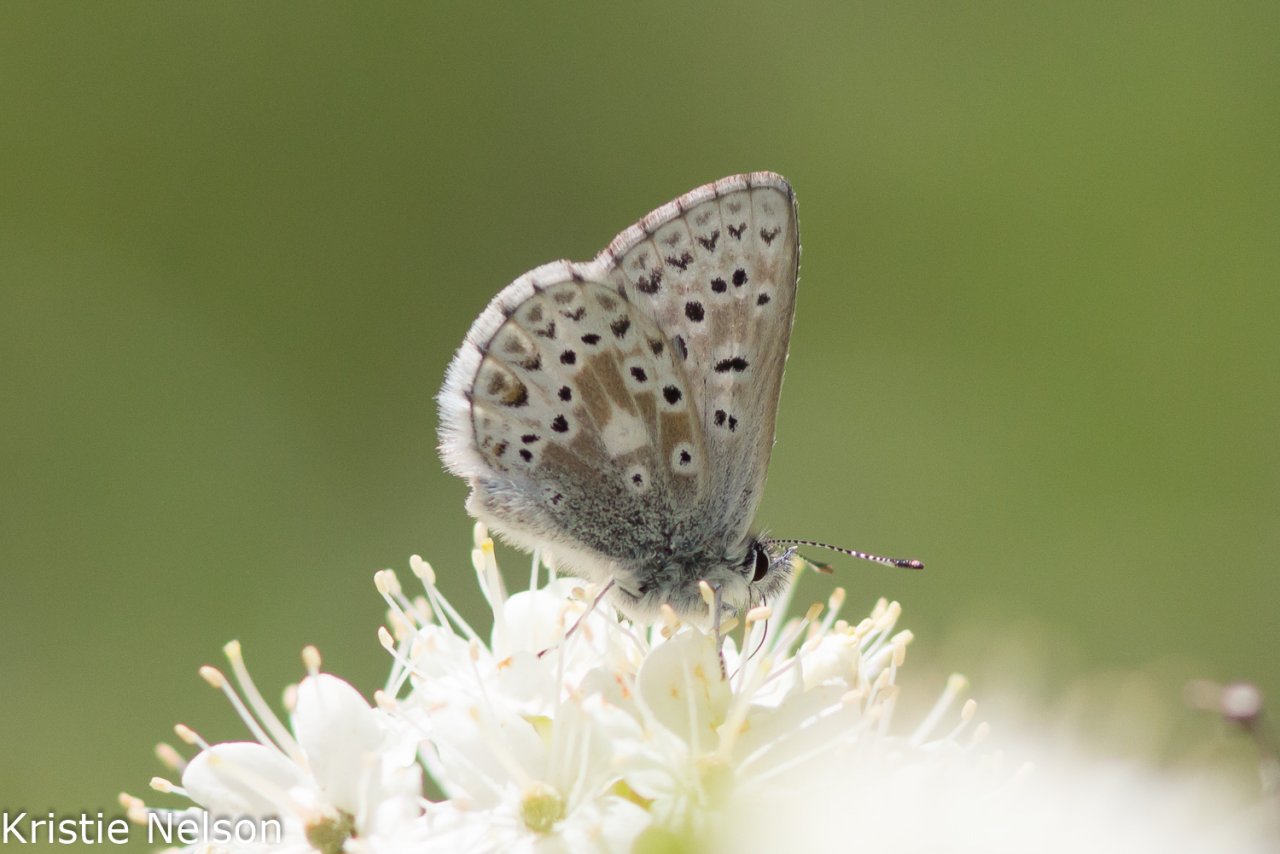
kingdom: Animalia
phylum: Arthropoda
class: Insecta
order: Lepidoptera
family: Lycaenidae
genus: Cupido
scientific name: Cupido podarce
